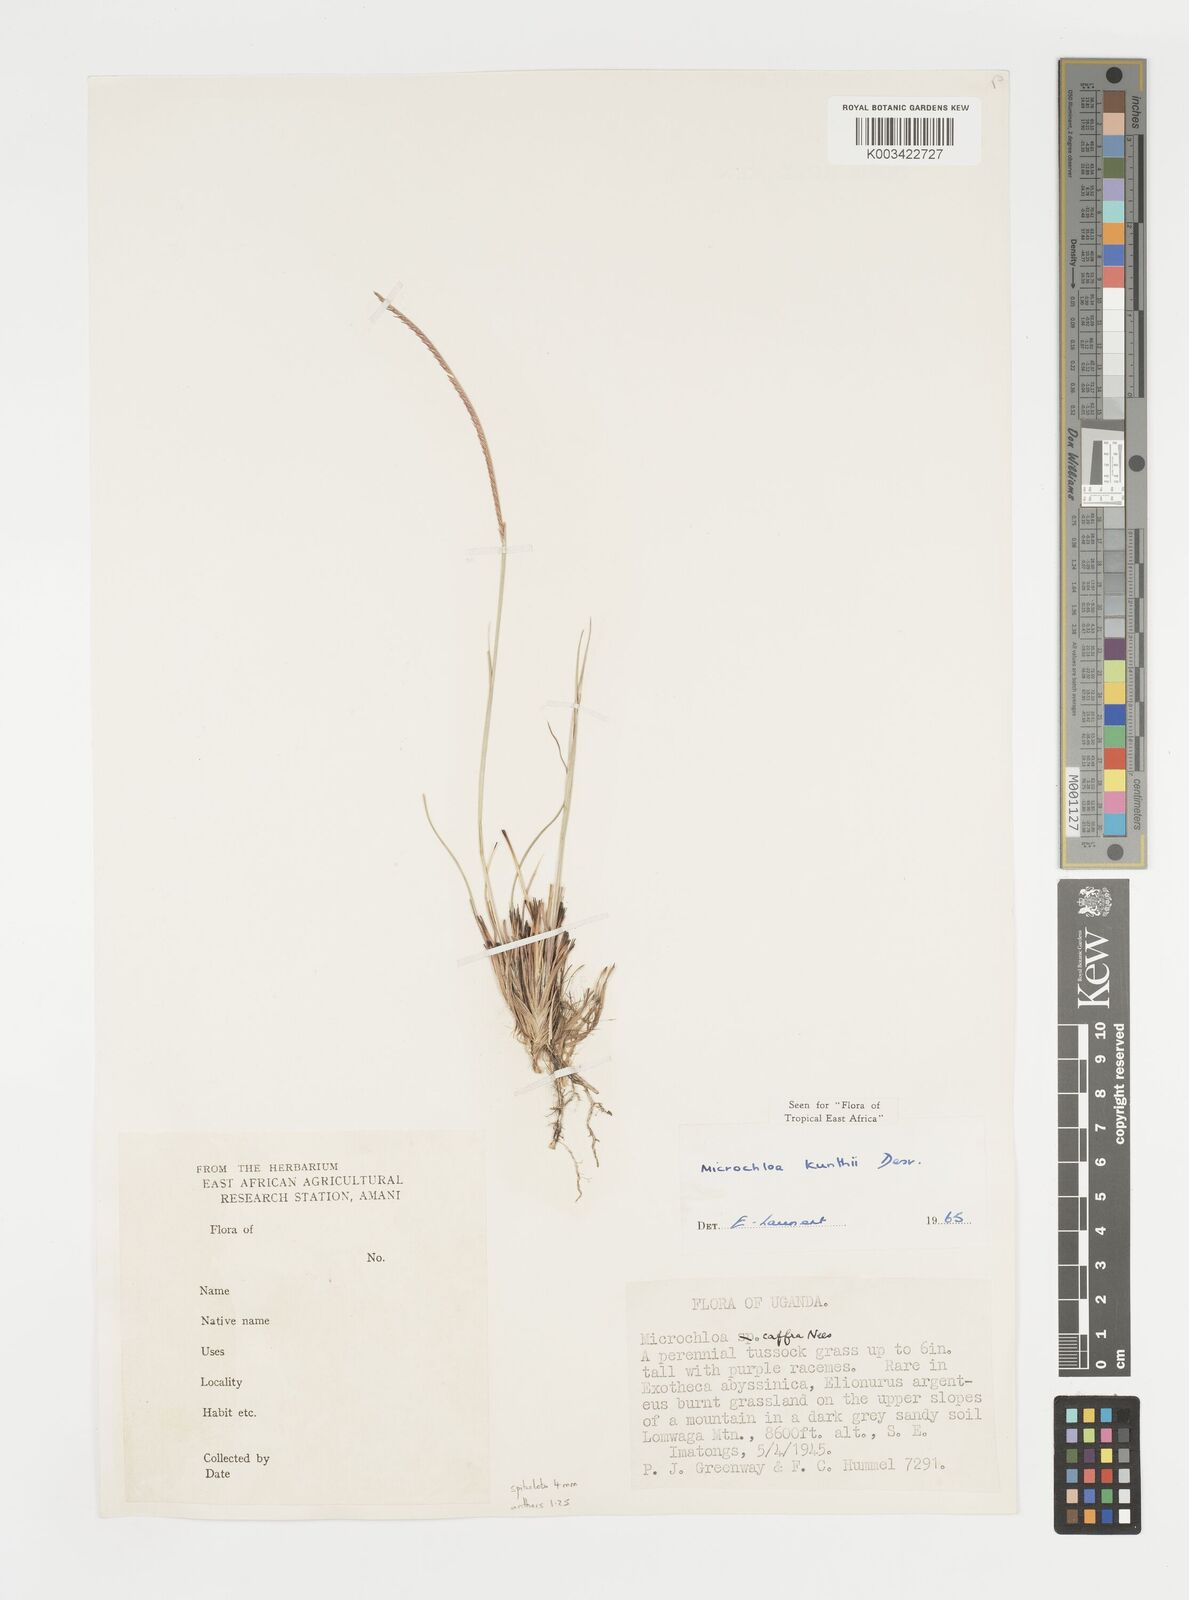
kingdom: Plantae
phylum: Tracheophyta
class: Liliopsida
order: Poales
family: Poaceae
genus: Microchloa
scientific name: Microchloa kunthii
